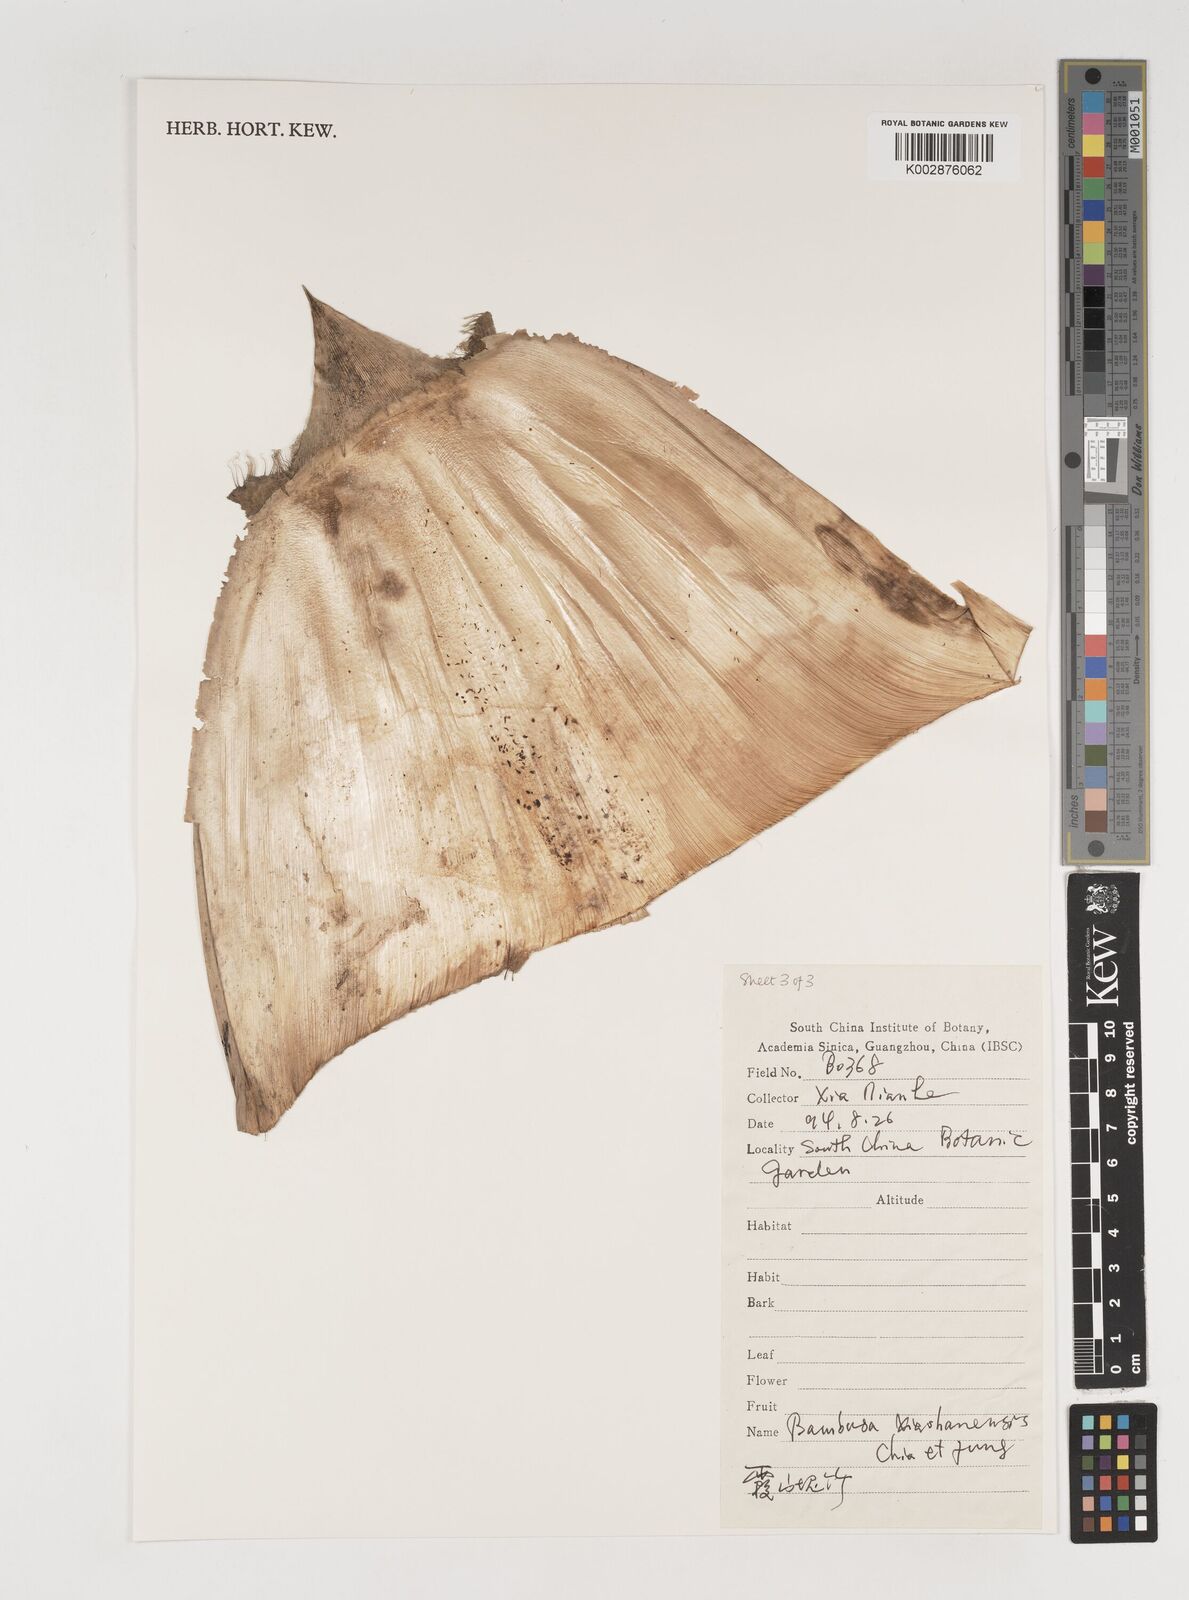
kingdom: Plantae
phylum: Tracheophyta
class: Liliopsida
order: Poales
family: Poaceae
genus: Bambusa
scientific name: Bambusa xiashanensis
